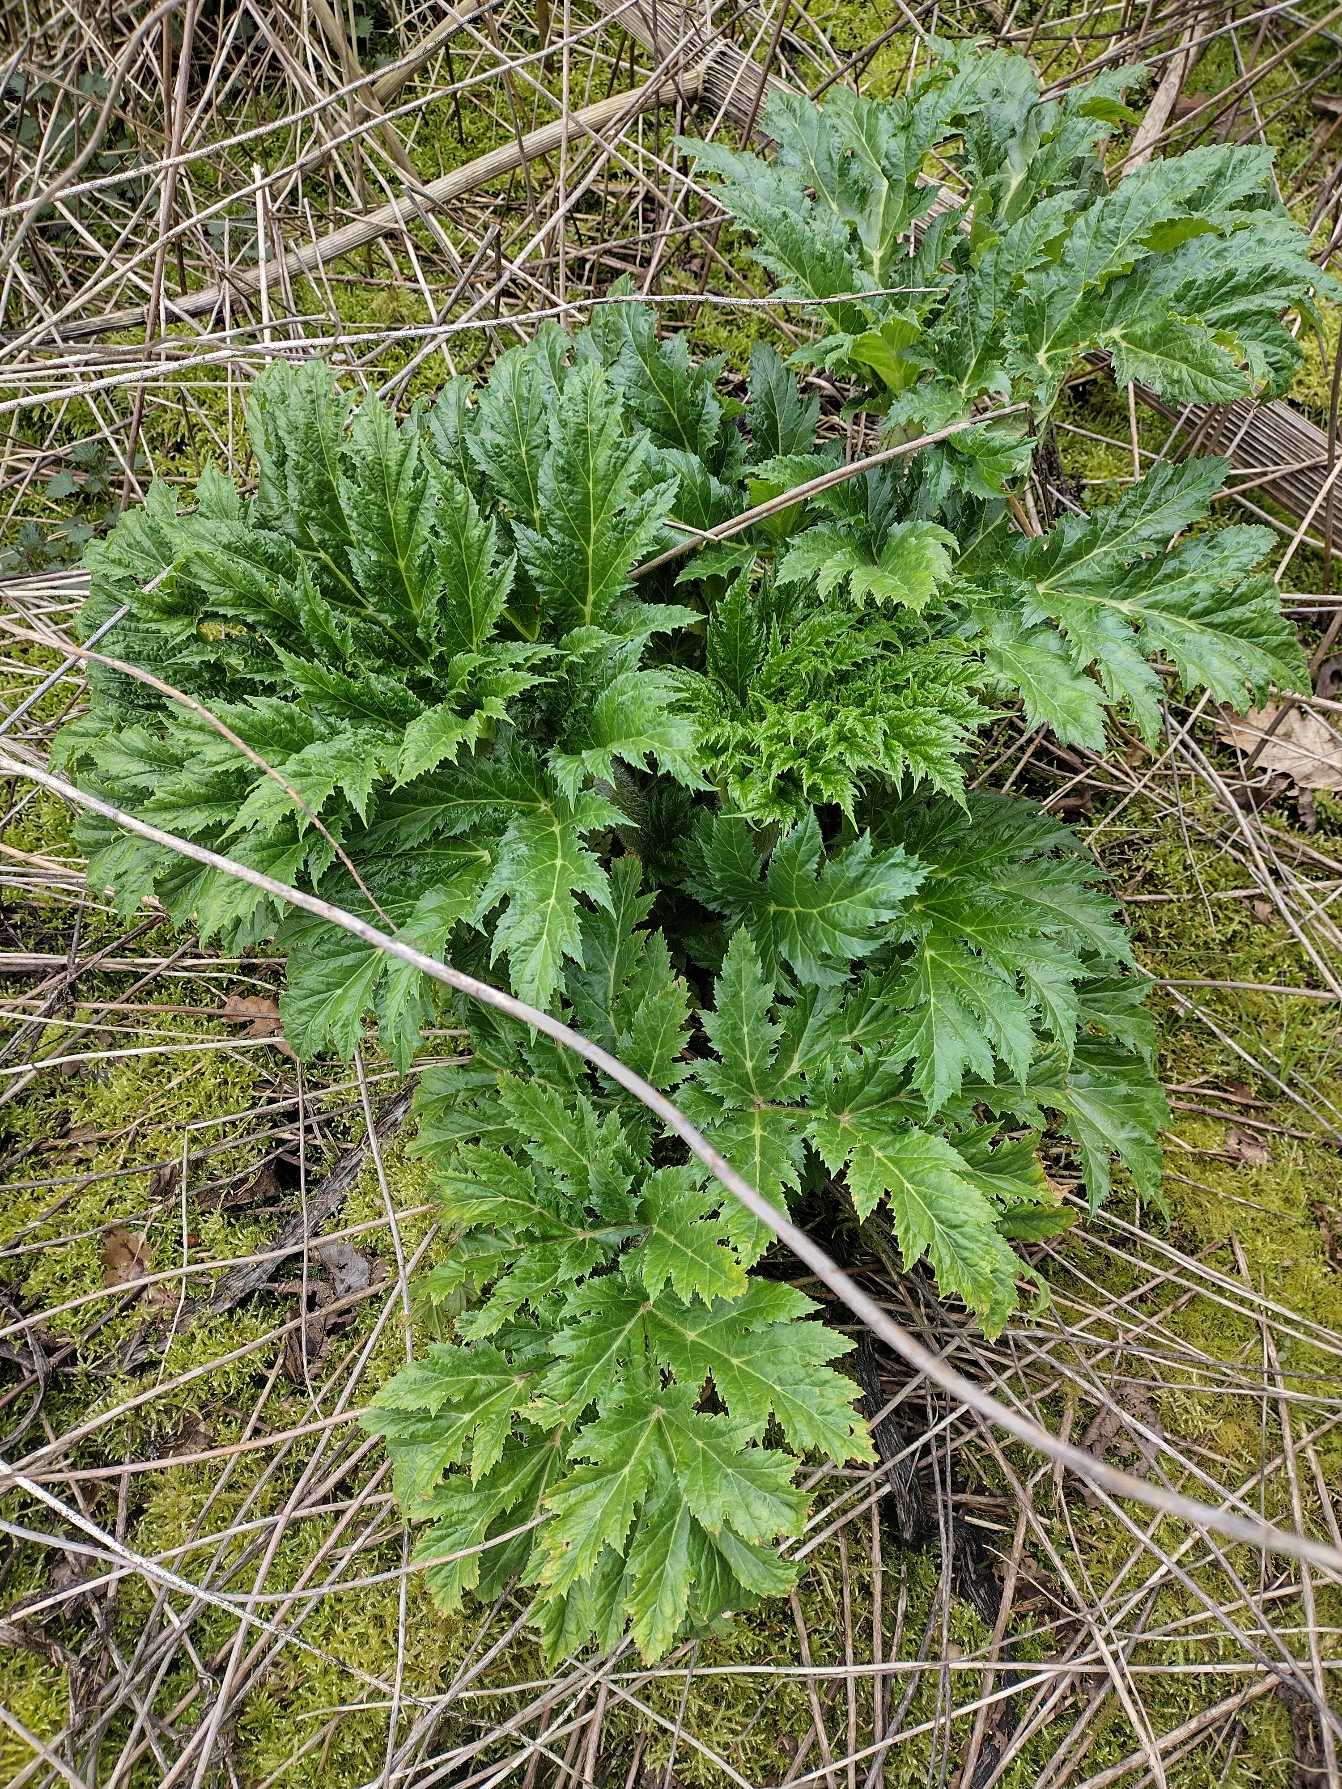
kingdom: Plantae
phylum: Tracheophyta
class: Magnoliopsida
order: Apiales
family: Apiaceae
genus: Heracleum
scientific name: Heracleum mantegazzianum
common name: Kæmpe-bjørneklo
